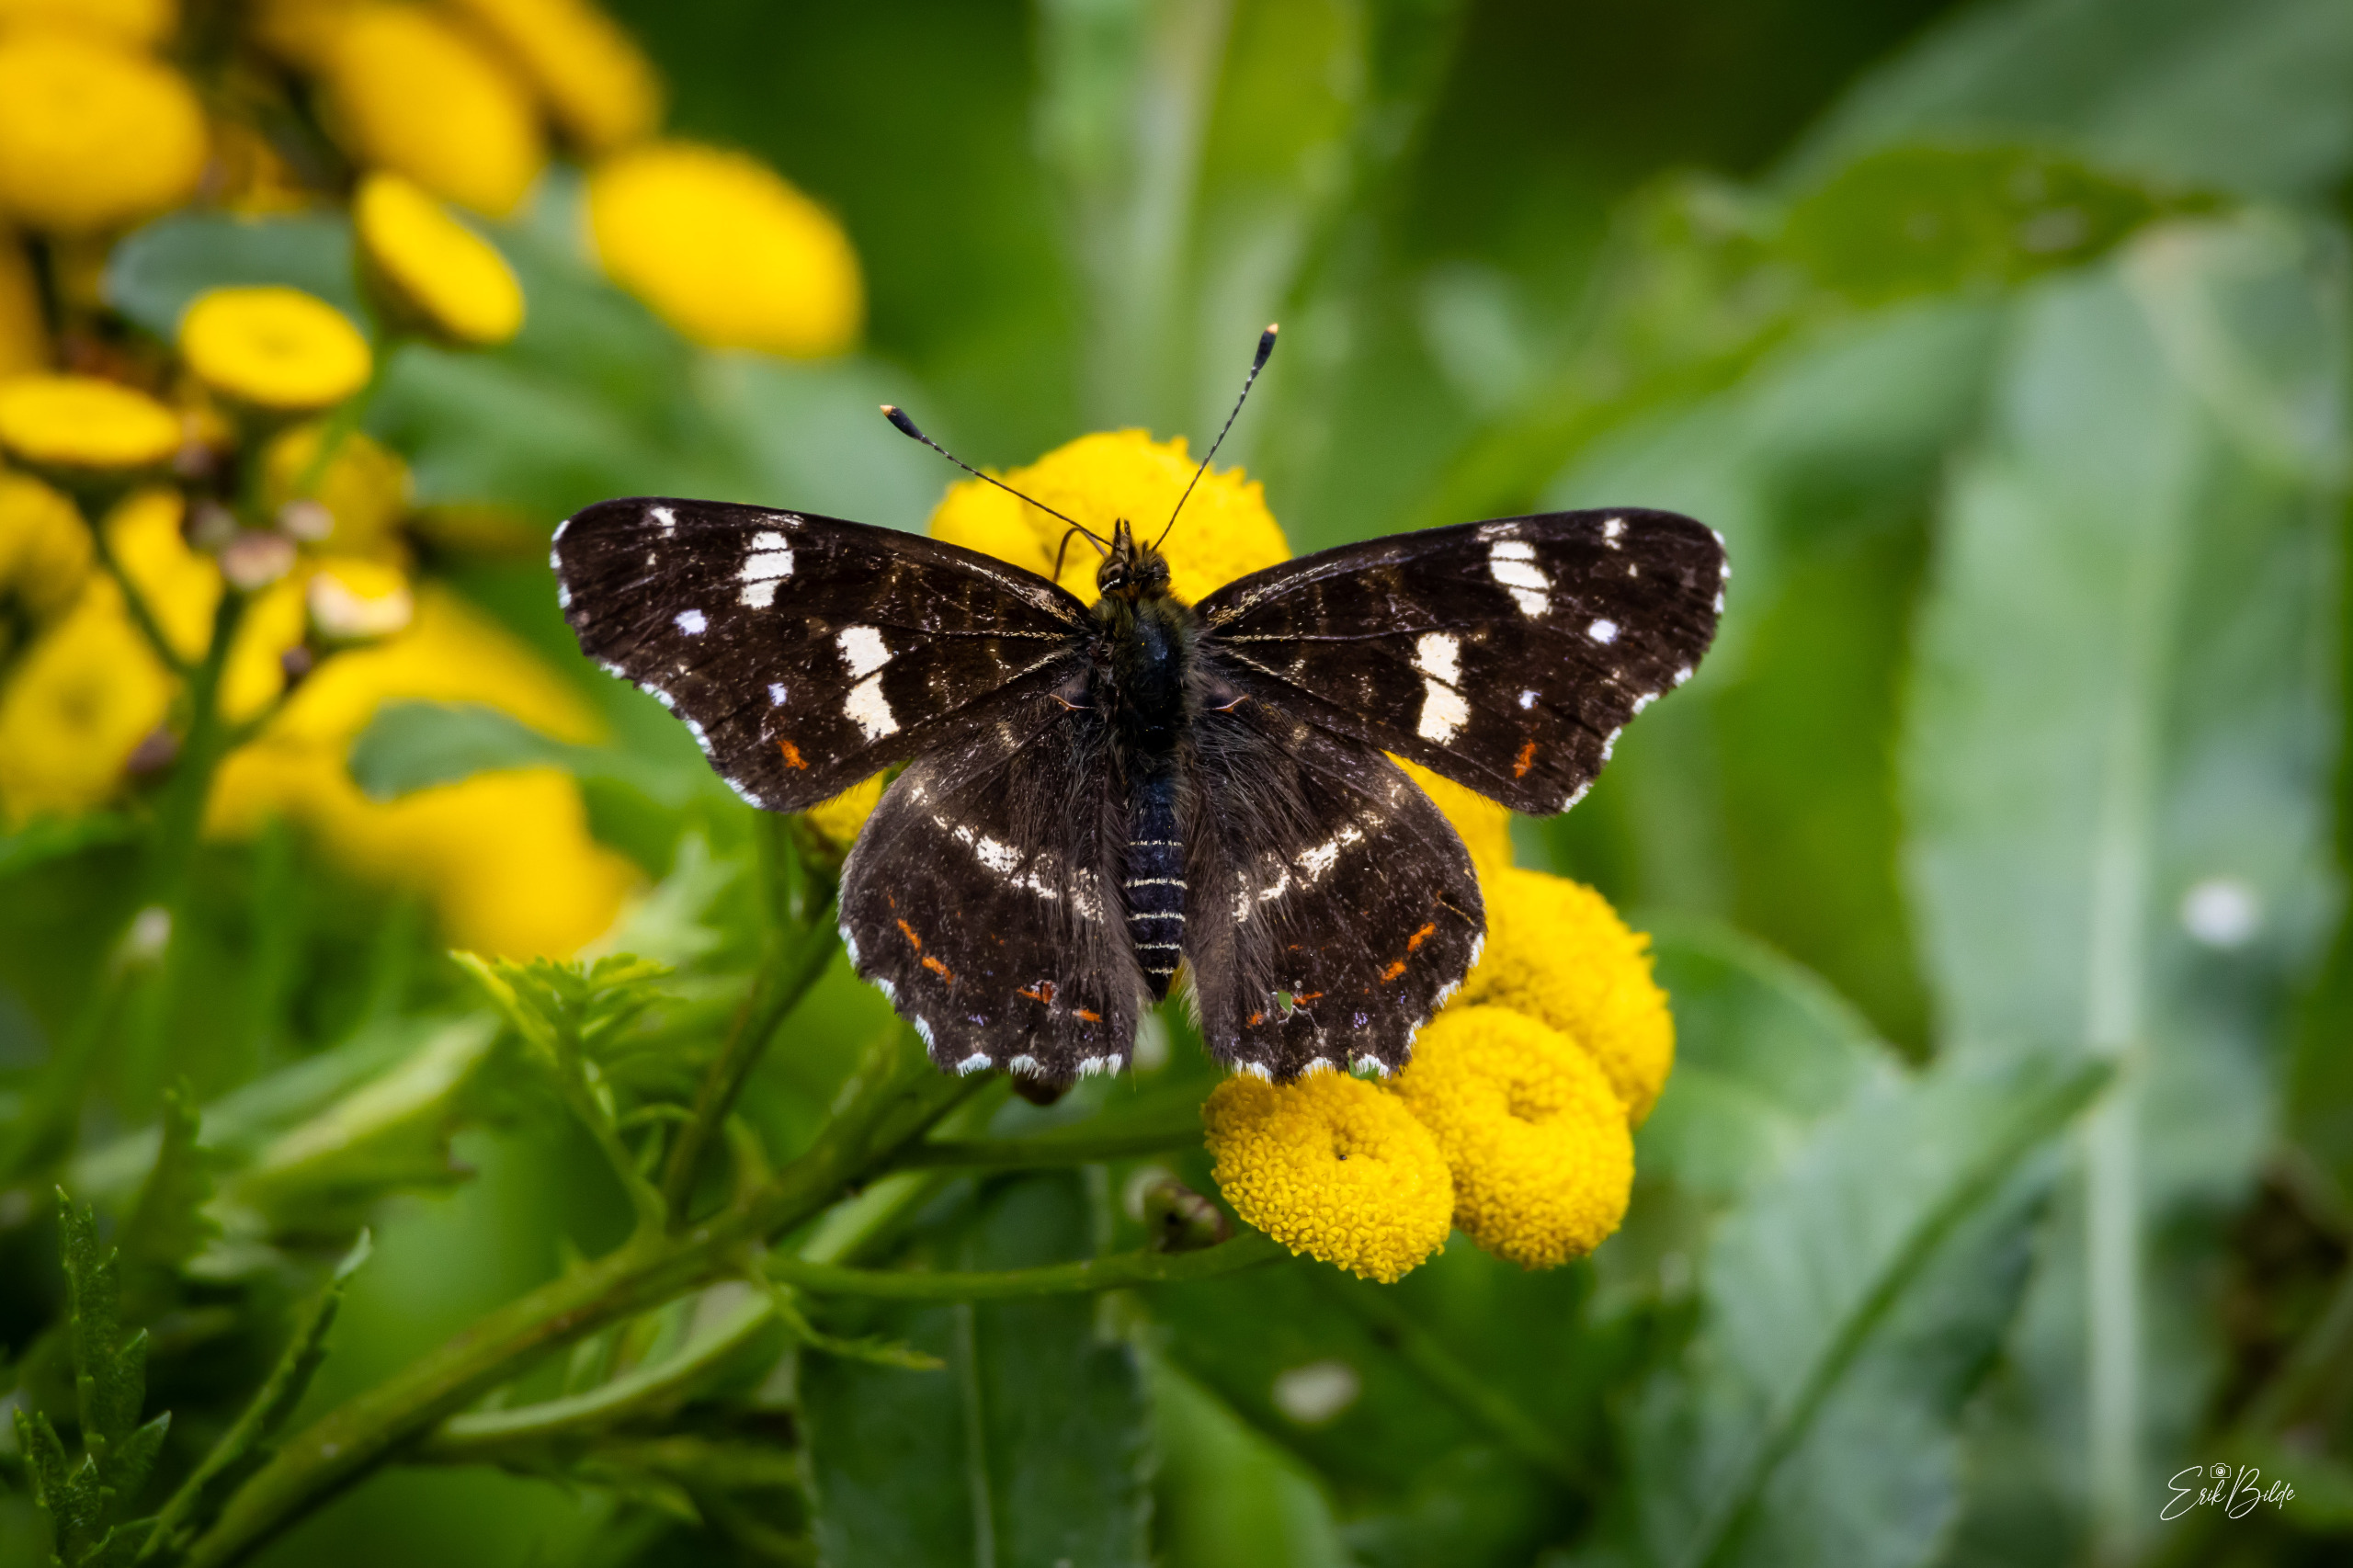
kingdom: Animalia
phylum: Arthropoda
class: Insecta
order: Lepidoptera
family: Nymphalidae
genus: Araschnia
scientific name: Araschnia levana
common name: Nældesommerfugl
